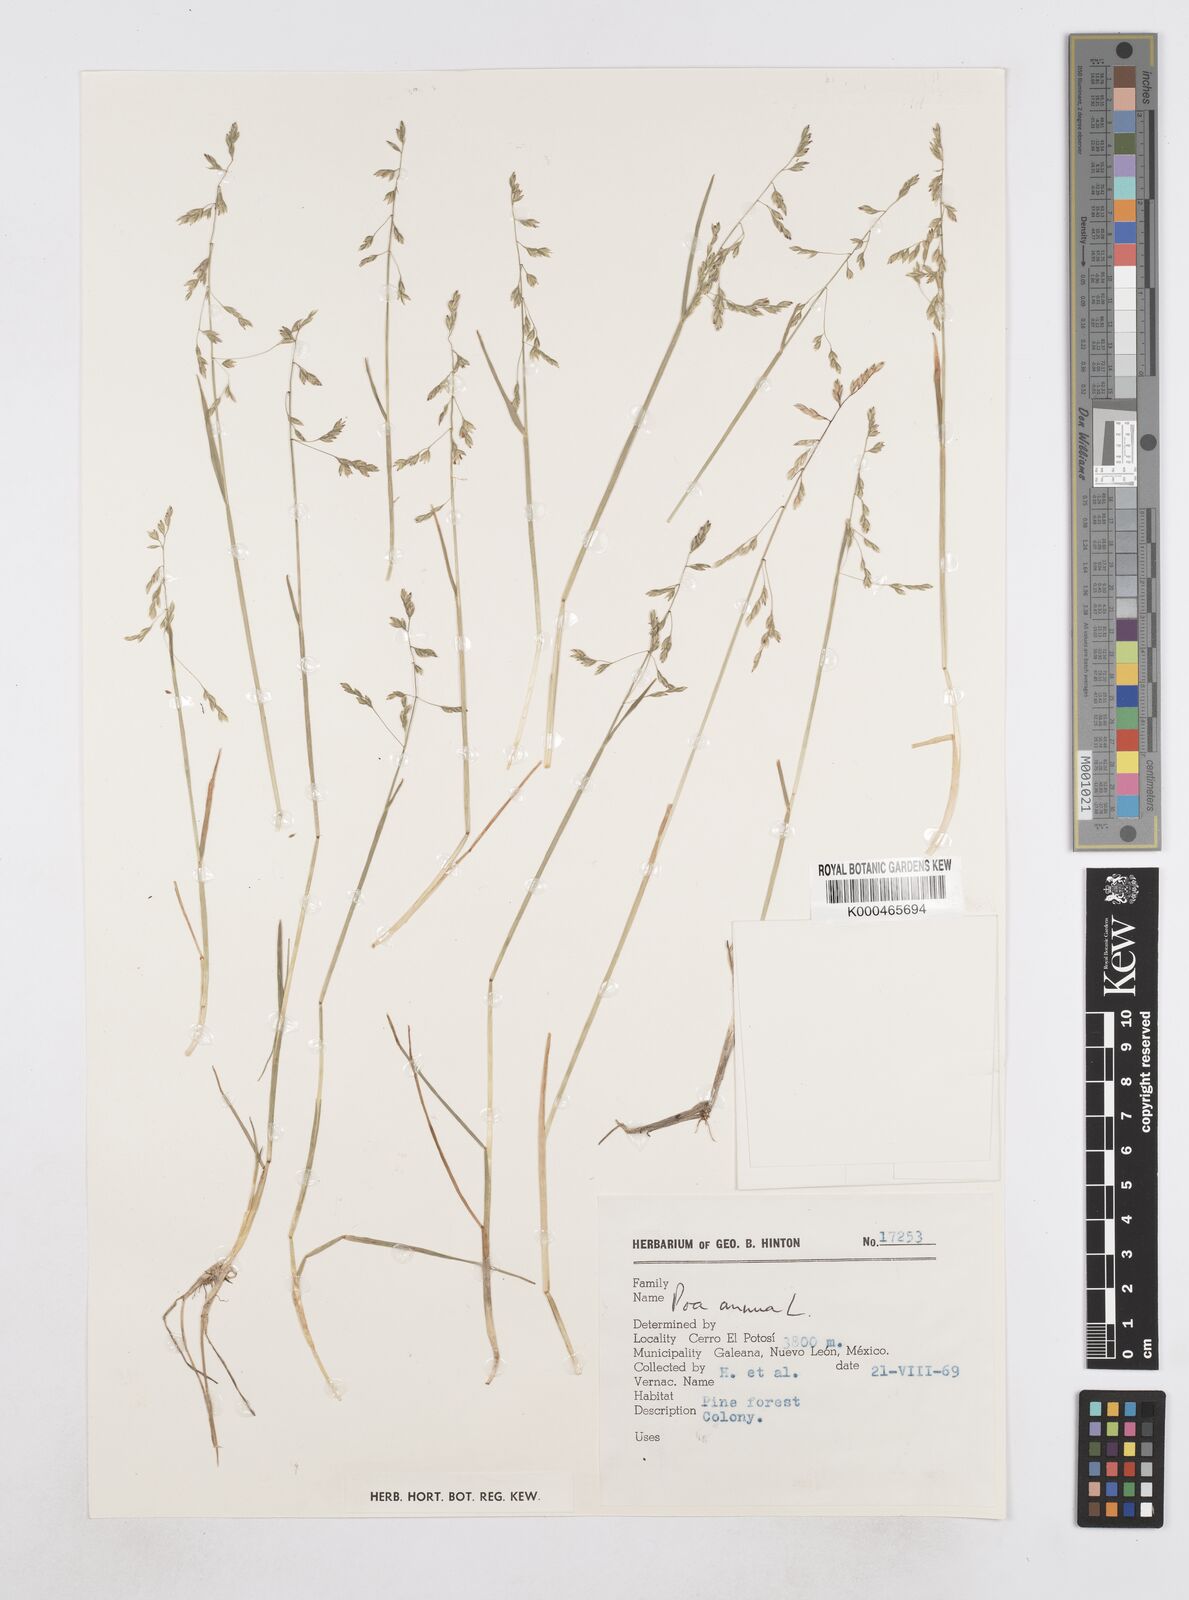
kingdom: Plantae
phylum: Tracheophyta
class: Liliopsida
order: Poales
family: Poaceae
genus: Poa
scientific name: Poa annua
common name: Annual bluegrass
